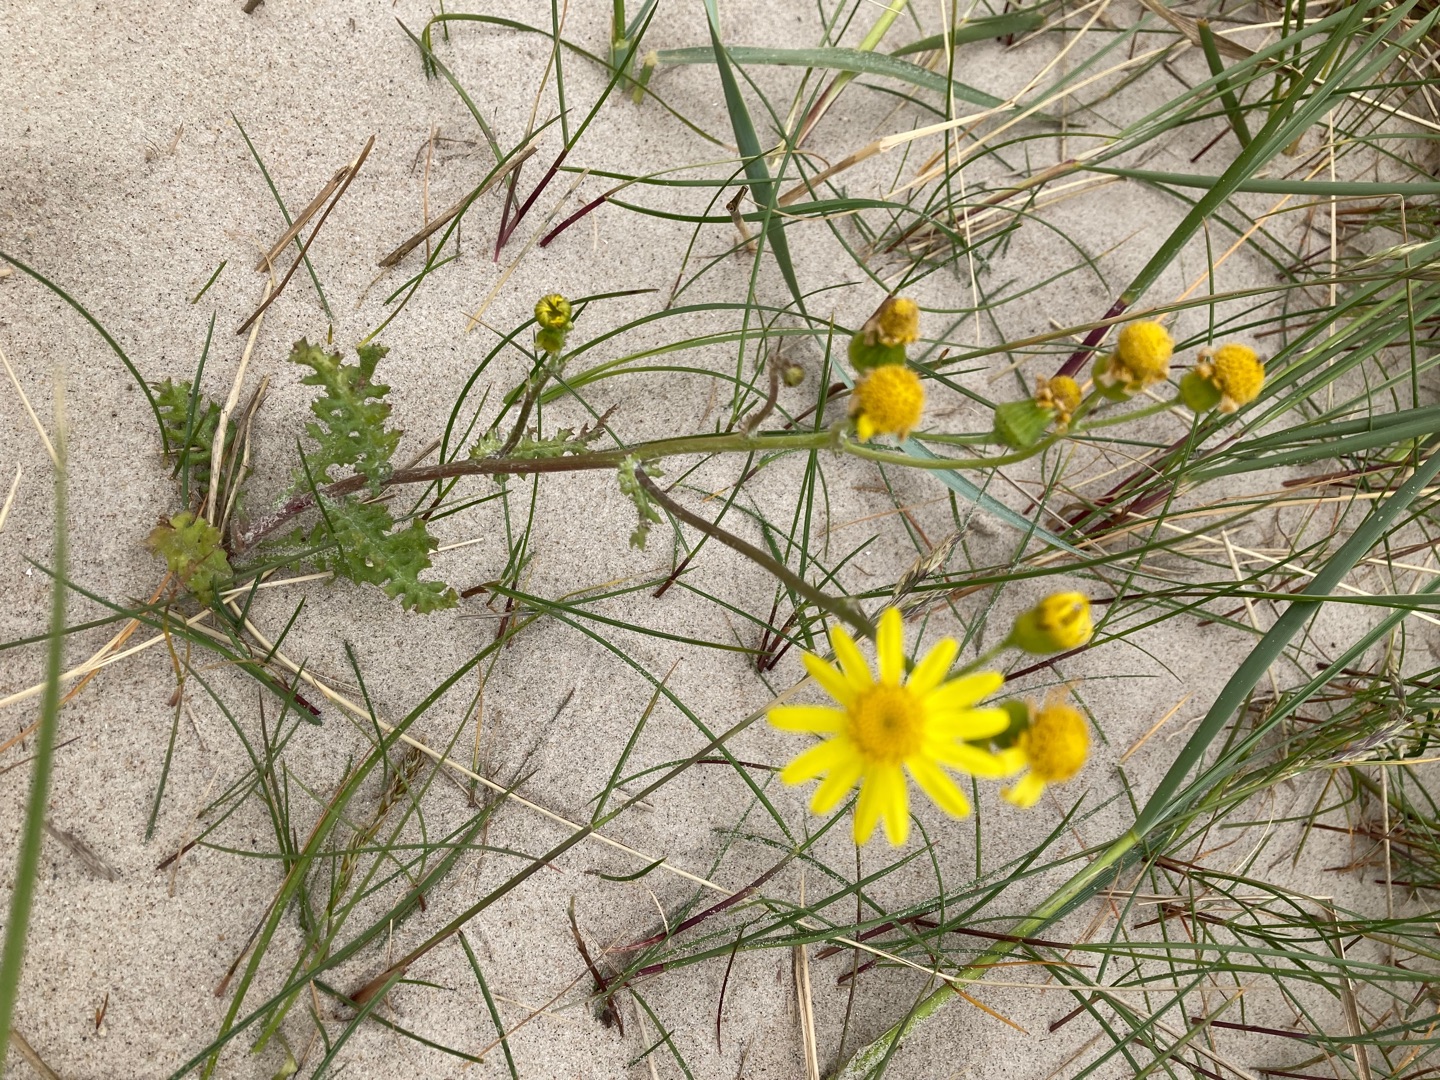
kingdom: Plantae
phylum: Tracheophyta
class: Magnoliopsida
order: Asterales
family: Asteraceae
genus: Senecio
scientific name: Senecio leucanthemifolius
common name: Vår-brandbæger
